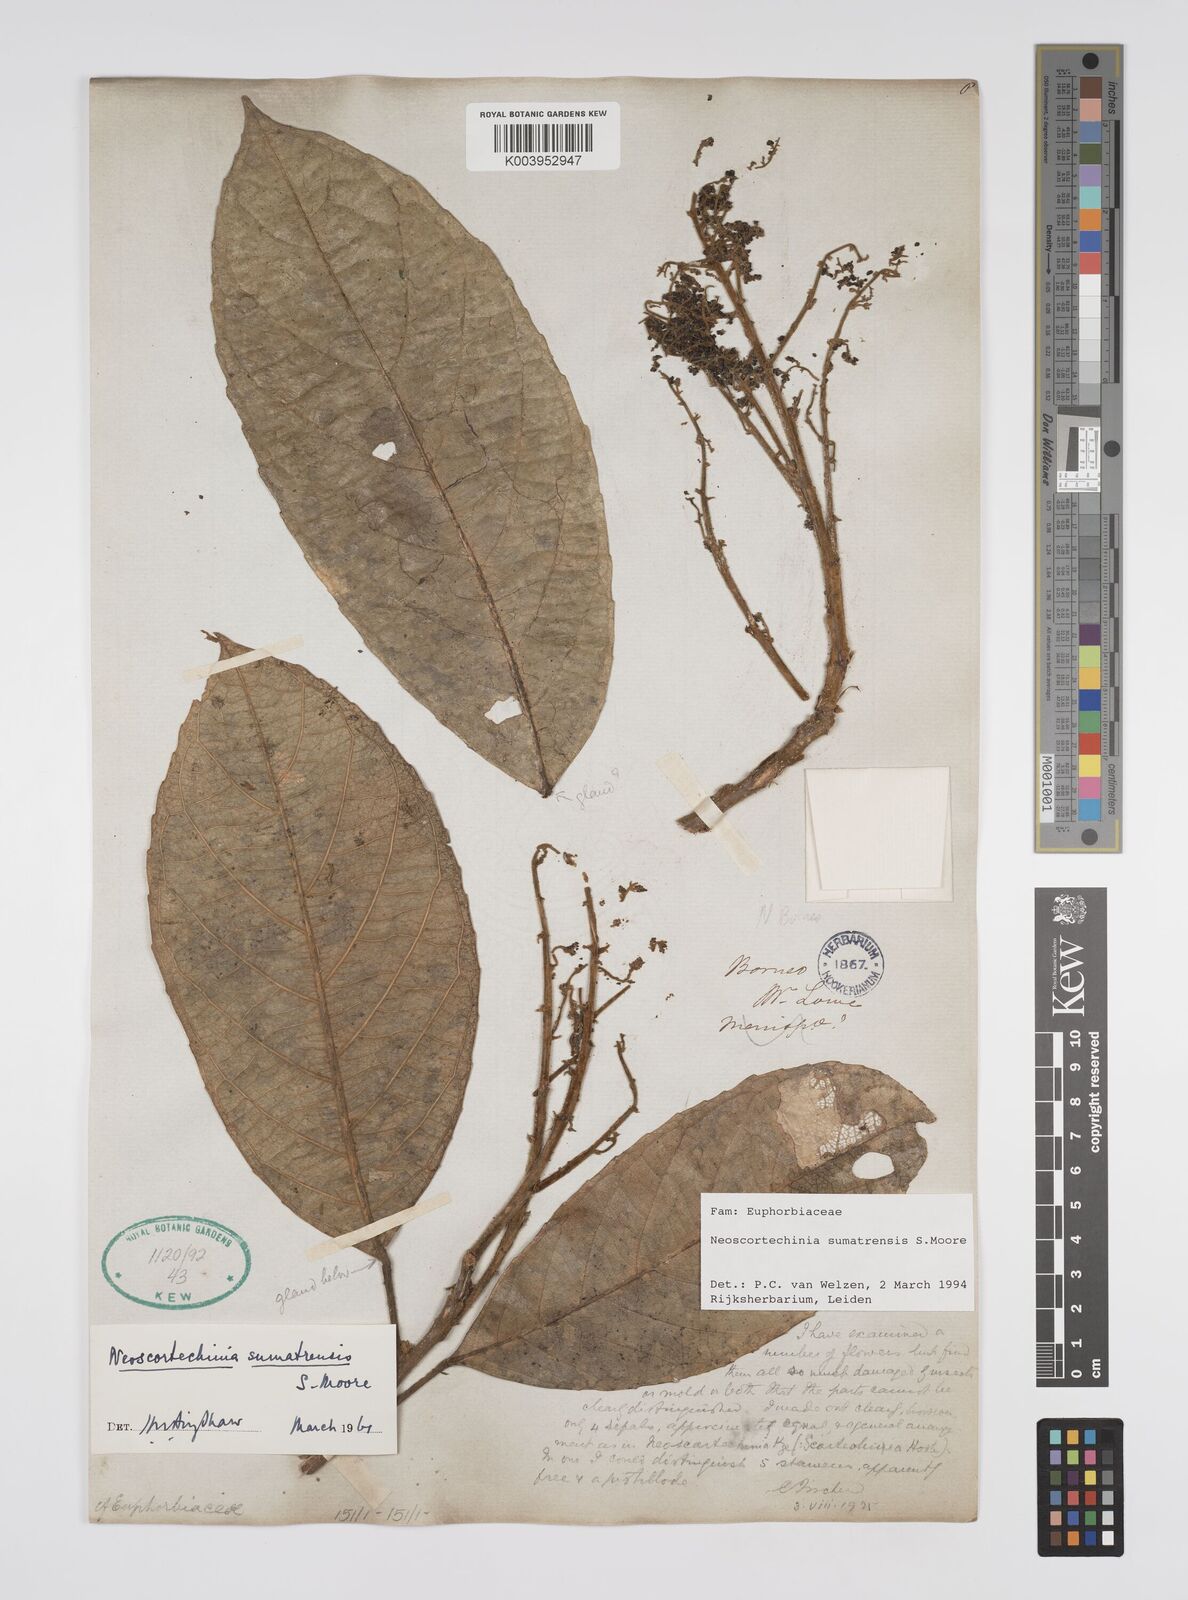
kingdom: Plantae
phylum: Tracheophyta
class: Magnoliopsida
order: Malpighiales
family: Euphorbiaceae
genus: Neoscortechinia
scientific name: Neoscortechinia sumatrensis
